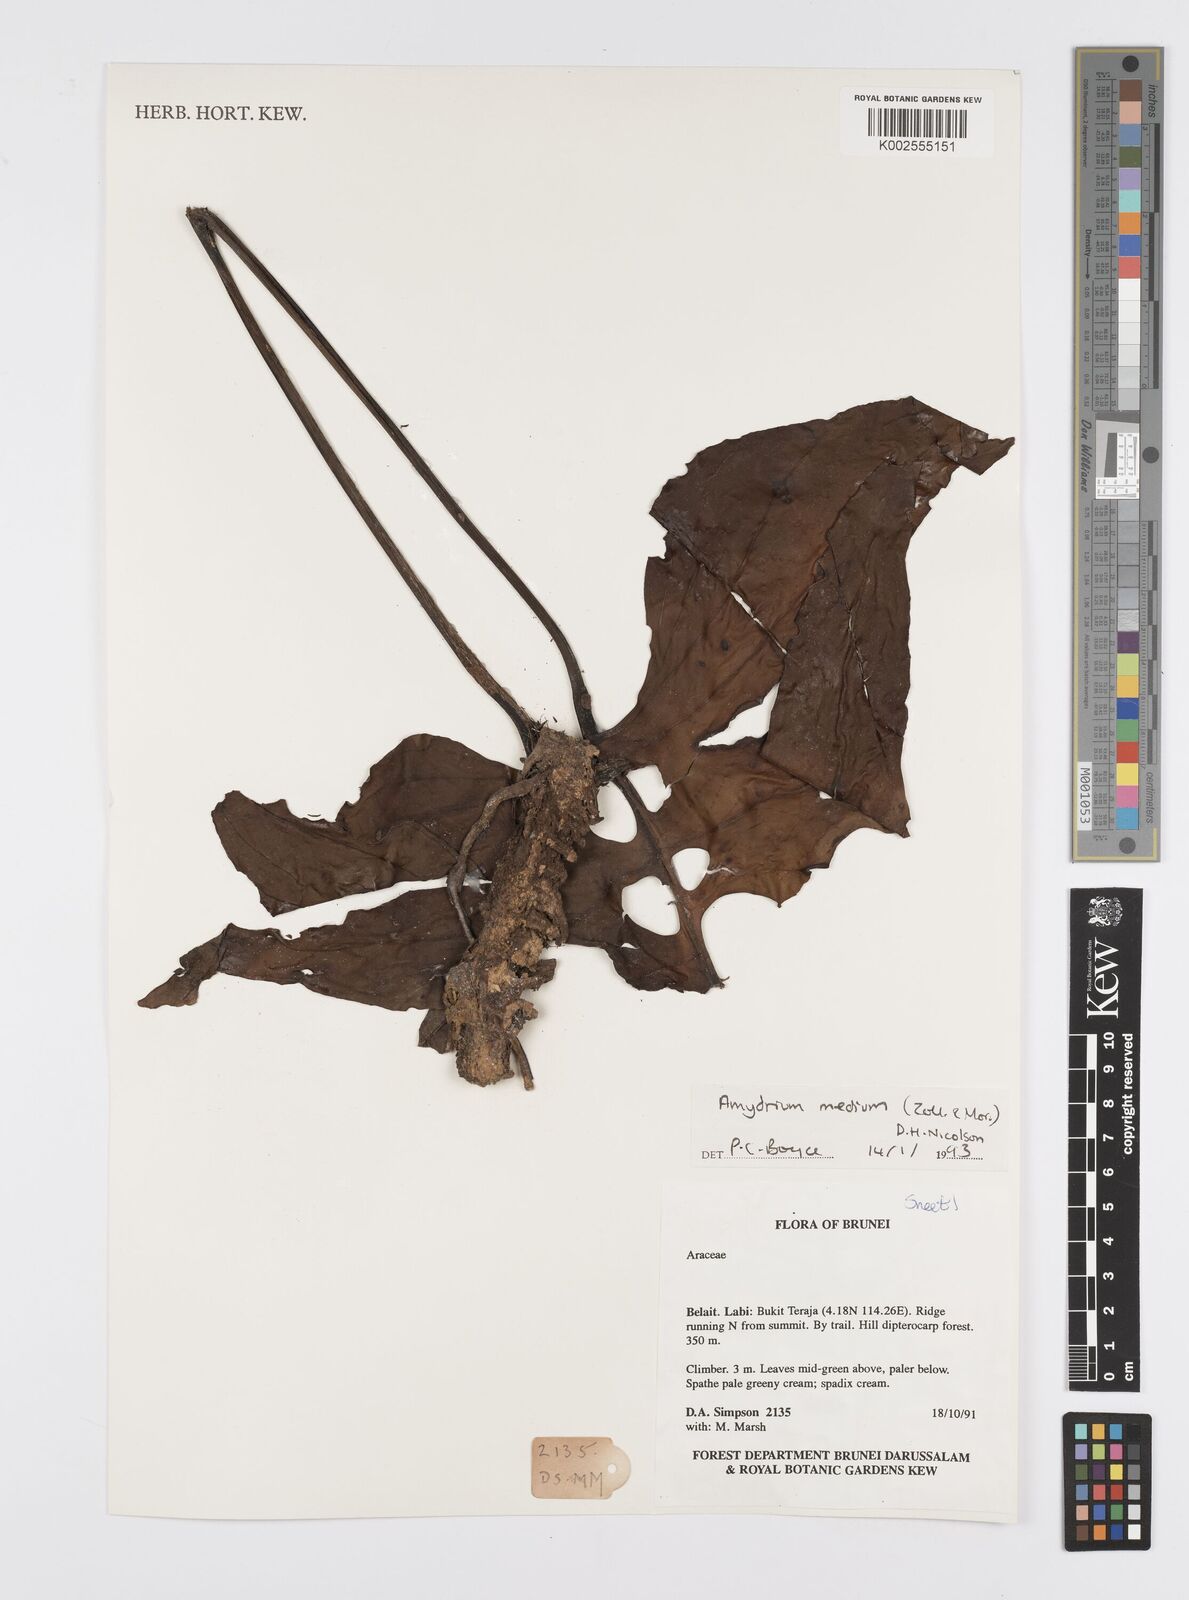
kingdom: Plantae
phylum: Tracheophyta
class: Liliopsida
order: Alismatales
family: Araceae
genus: Amydrium
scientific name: Amydrium medium
